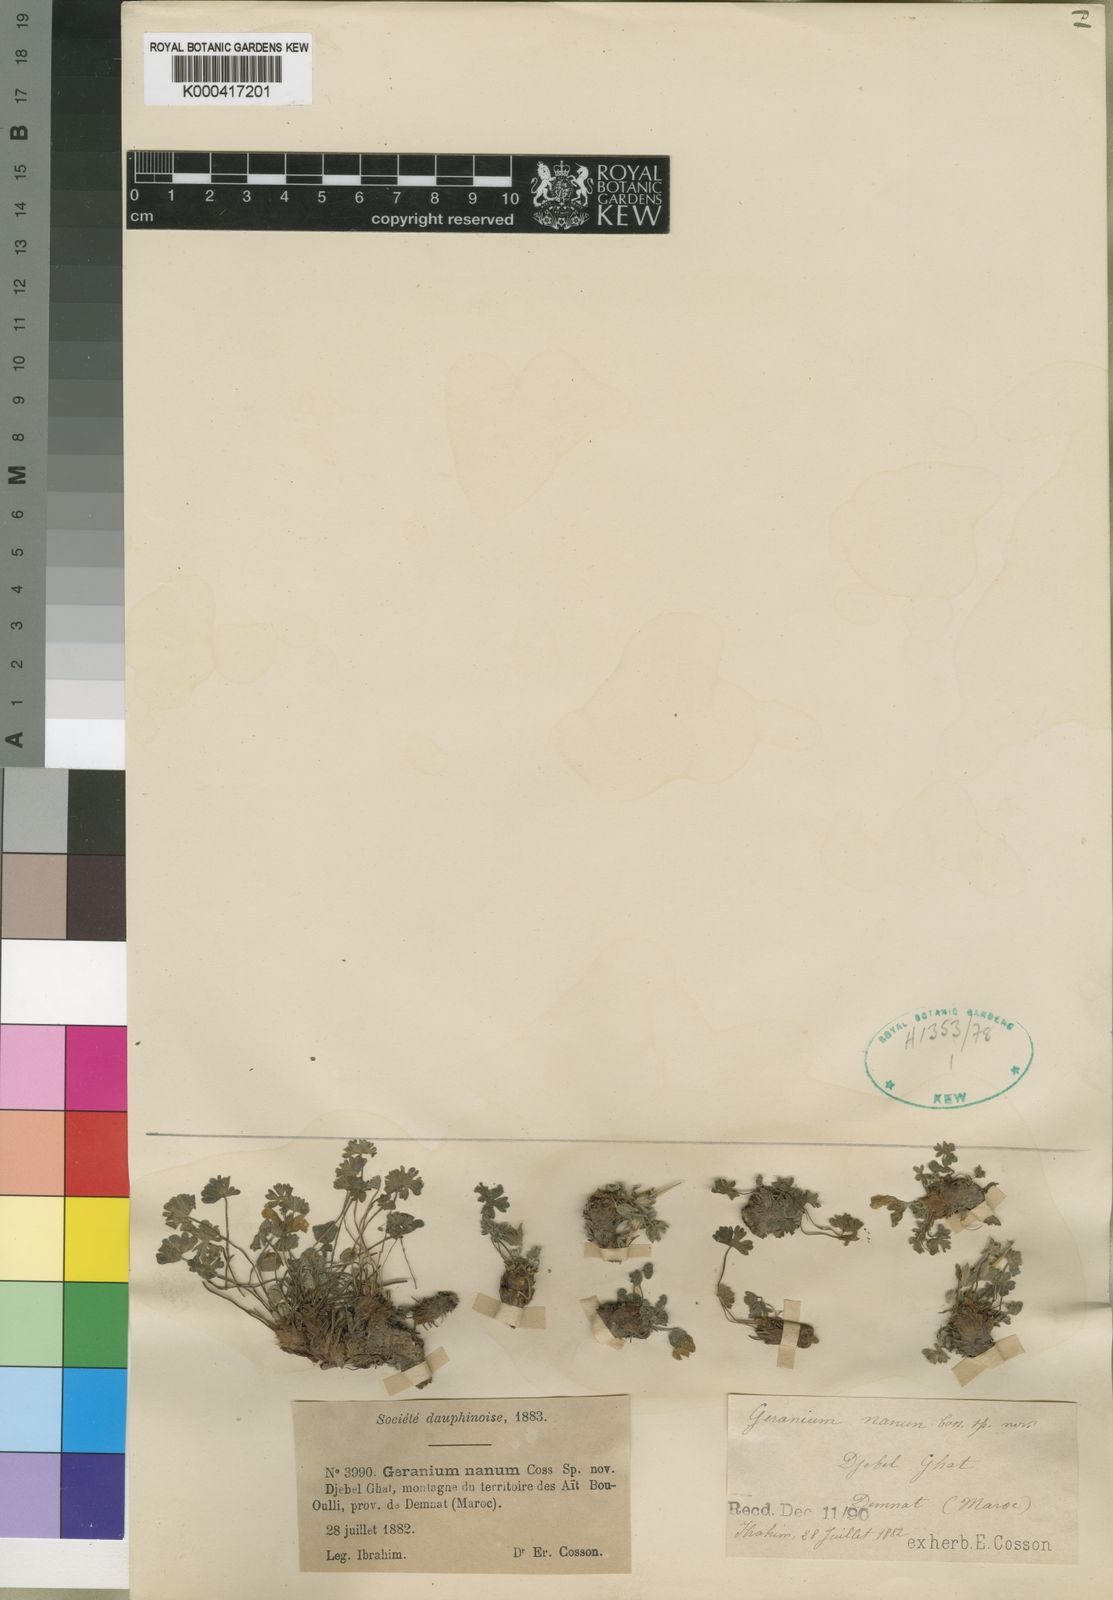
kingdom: Plantae
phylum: Tracheophyta
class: Magnoliopsida
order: Geraniales
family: Geraniaceae
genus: Geranium
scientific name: Geranium
